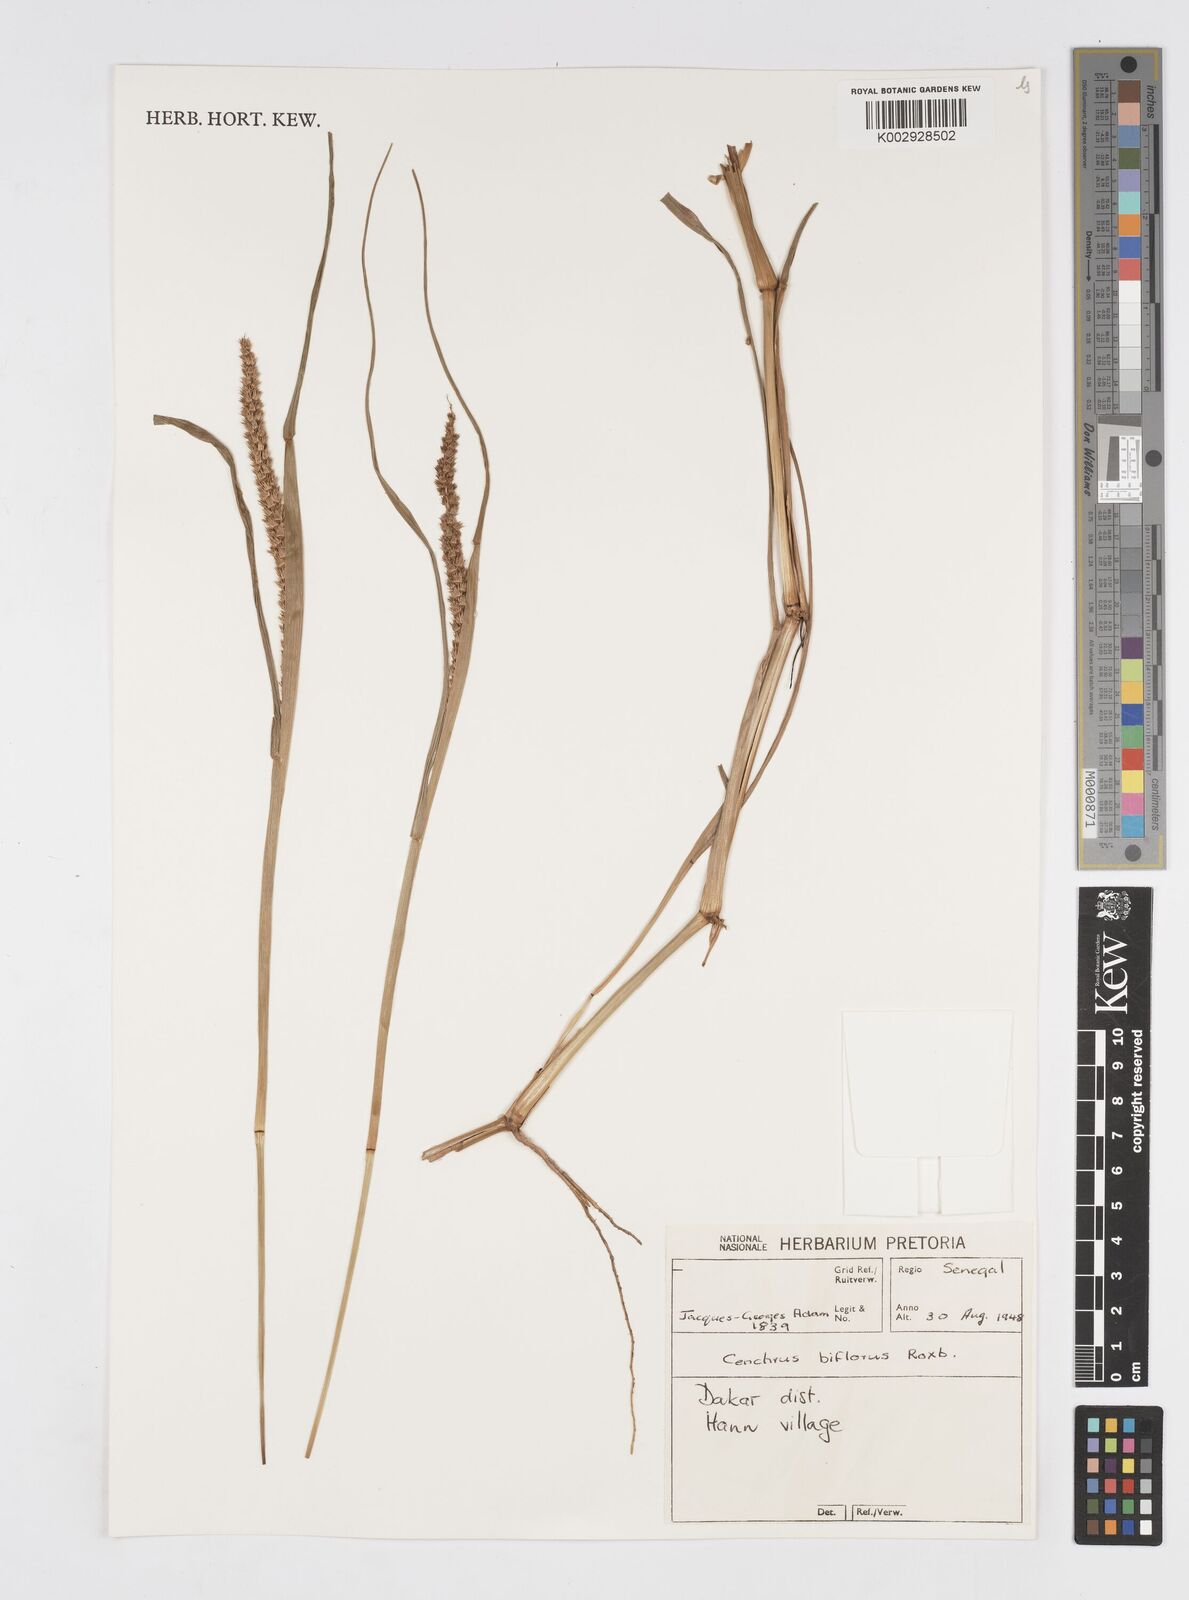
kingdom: Plantae
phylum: Tracheophyta
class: Liliopsida
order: Poales
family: Poaceae
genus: Cenchrus
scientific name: Cenchrus biflorus
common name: Indian sandbur
